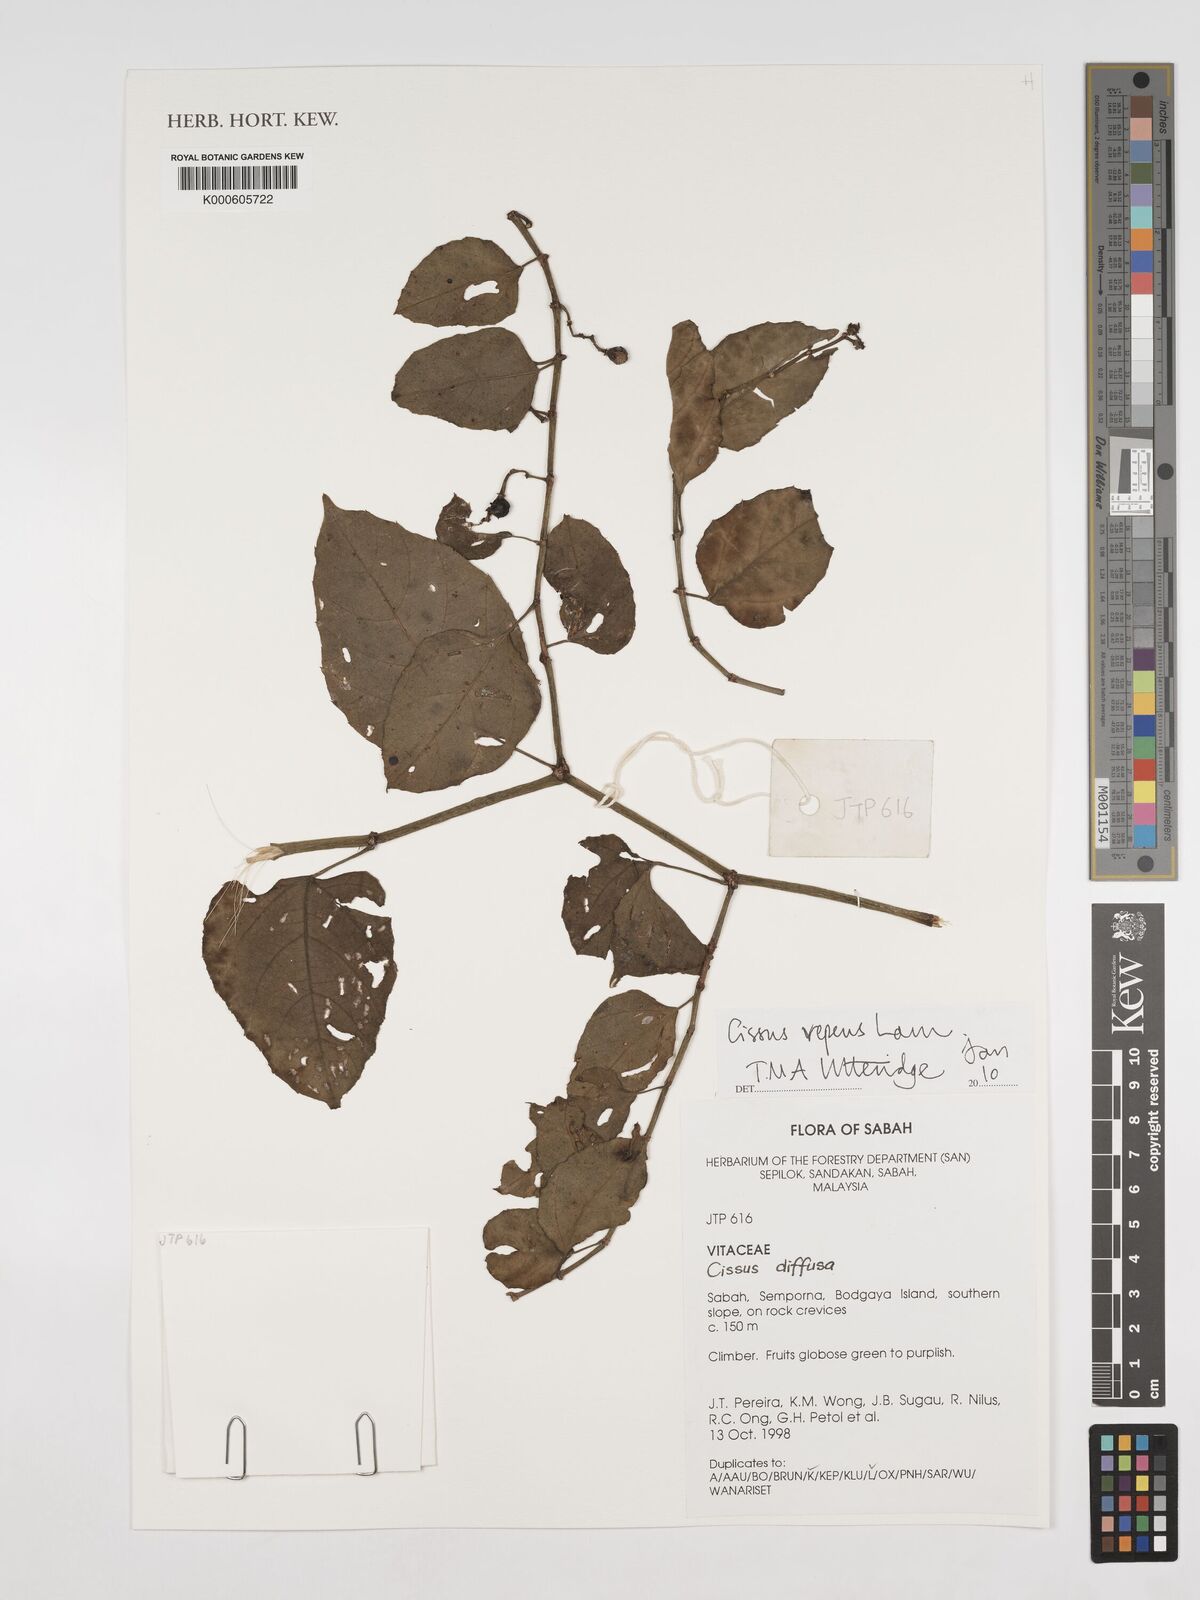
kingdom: Plantae
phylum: Tracheophyta
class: Magnoliopsida
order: Vitales
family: Vitaceae
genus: Cissus
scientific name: Cissus repens
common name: Cissus
